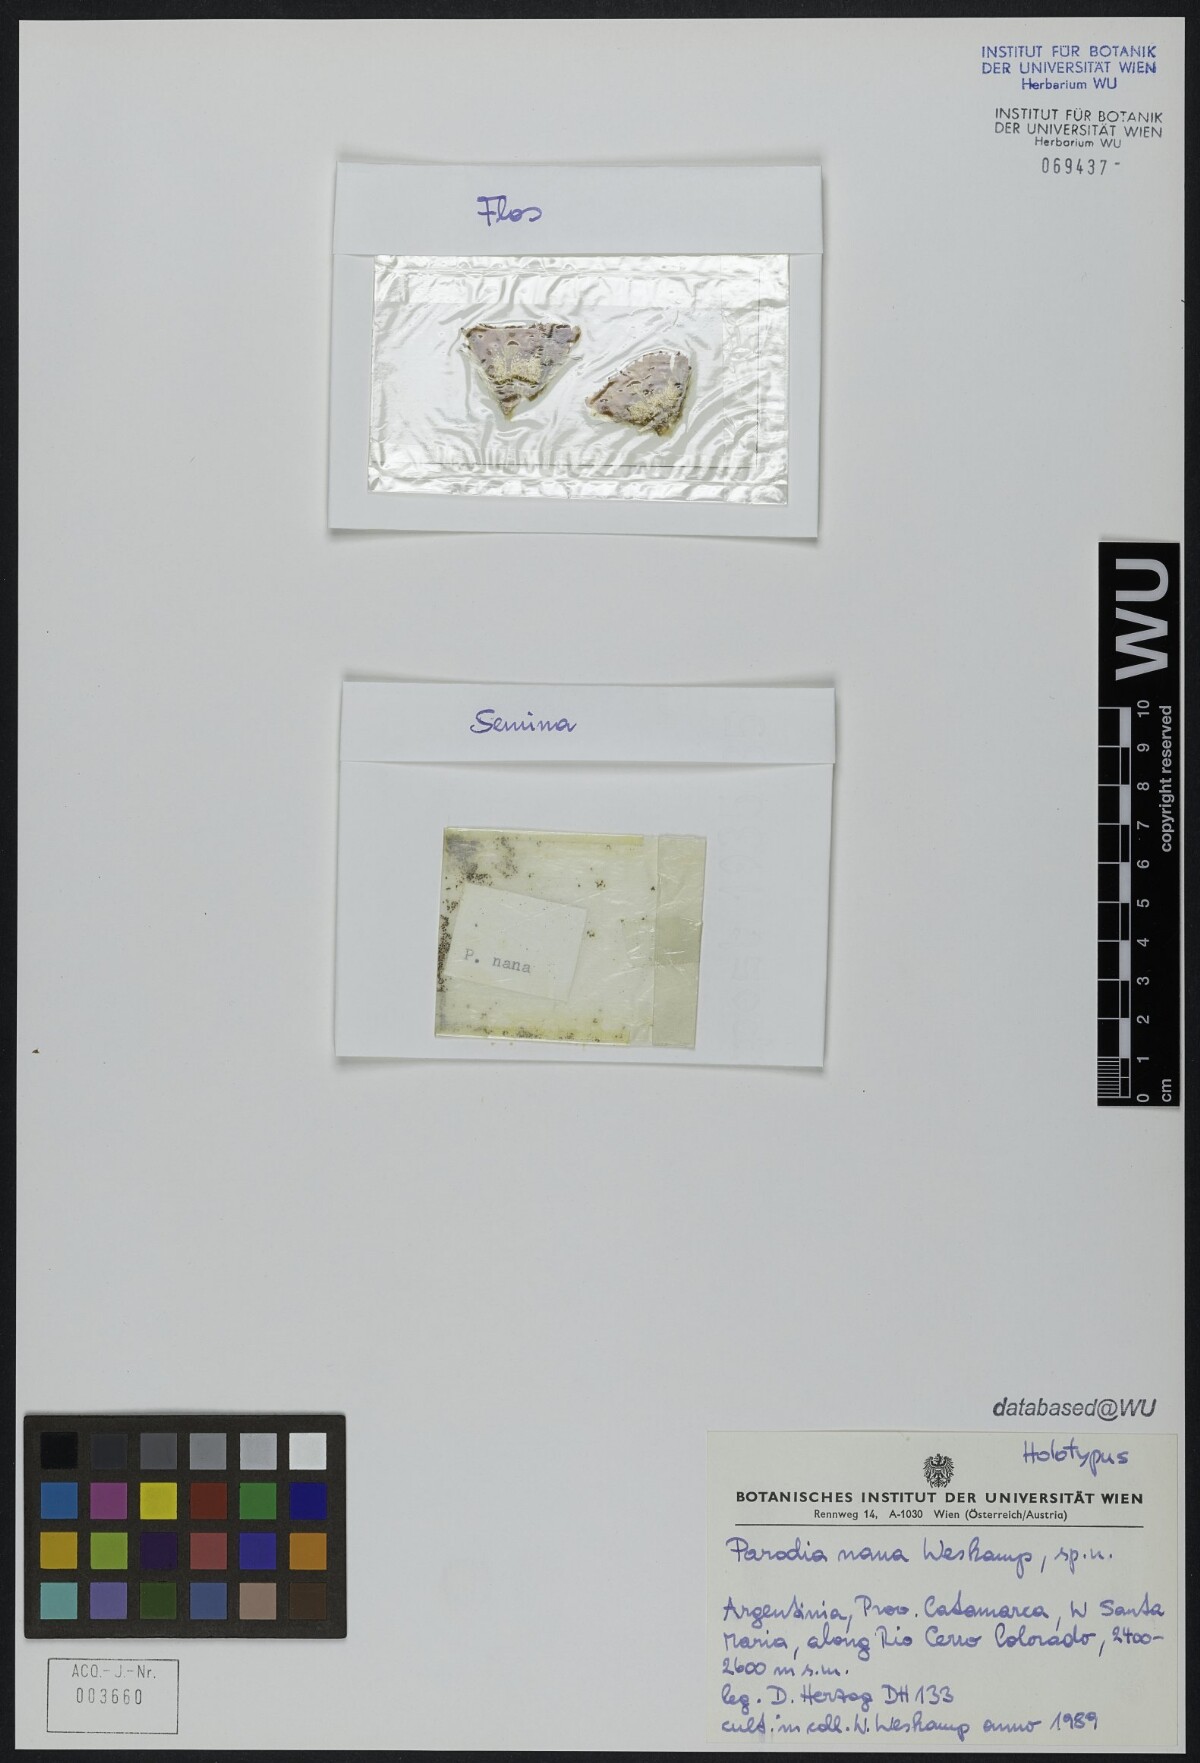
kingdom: Plantae
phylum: Tracheophyta
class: Magnoliopsida
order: Caryophyllales
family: Cactaceae
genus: Parodia
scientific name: Parodia microsperma
